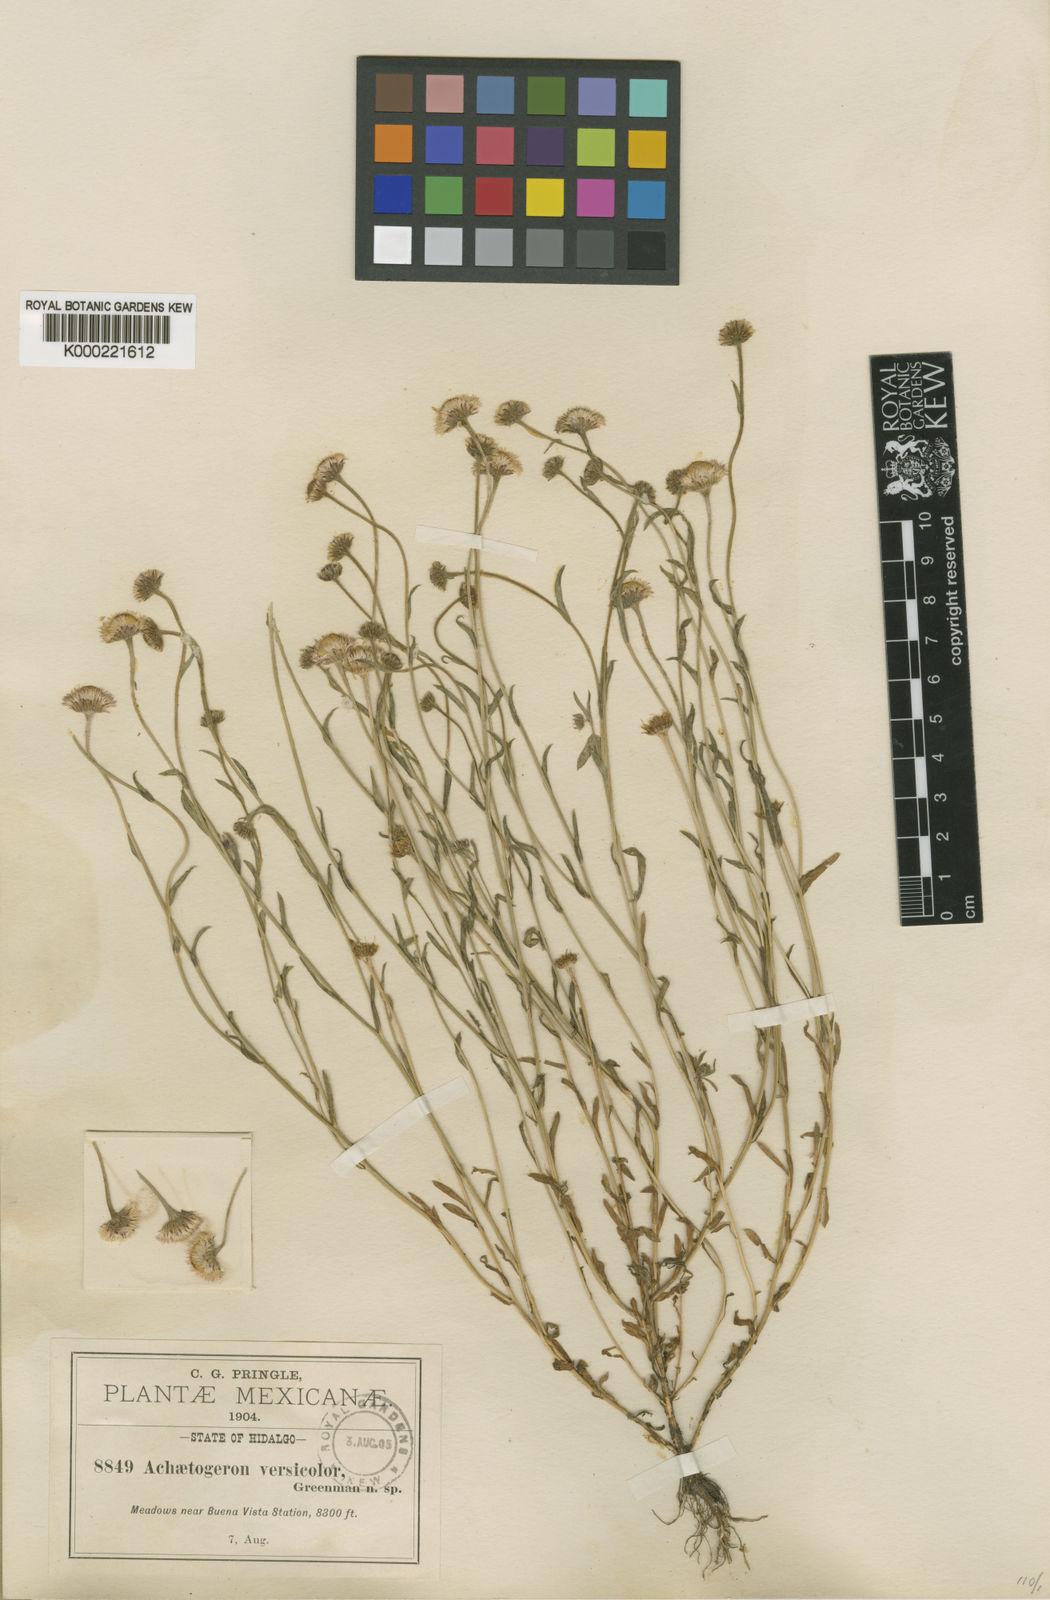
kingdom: Plantae
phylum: Tracheophyta
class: Magnoliopsida
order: Asterales
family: Asteraceae
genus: Erigeron
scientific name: Erigeron versicolor
